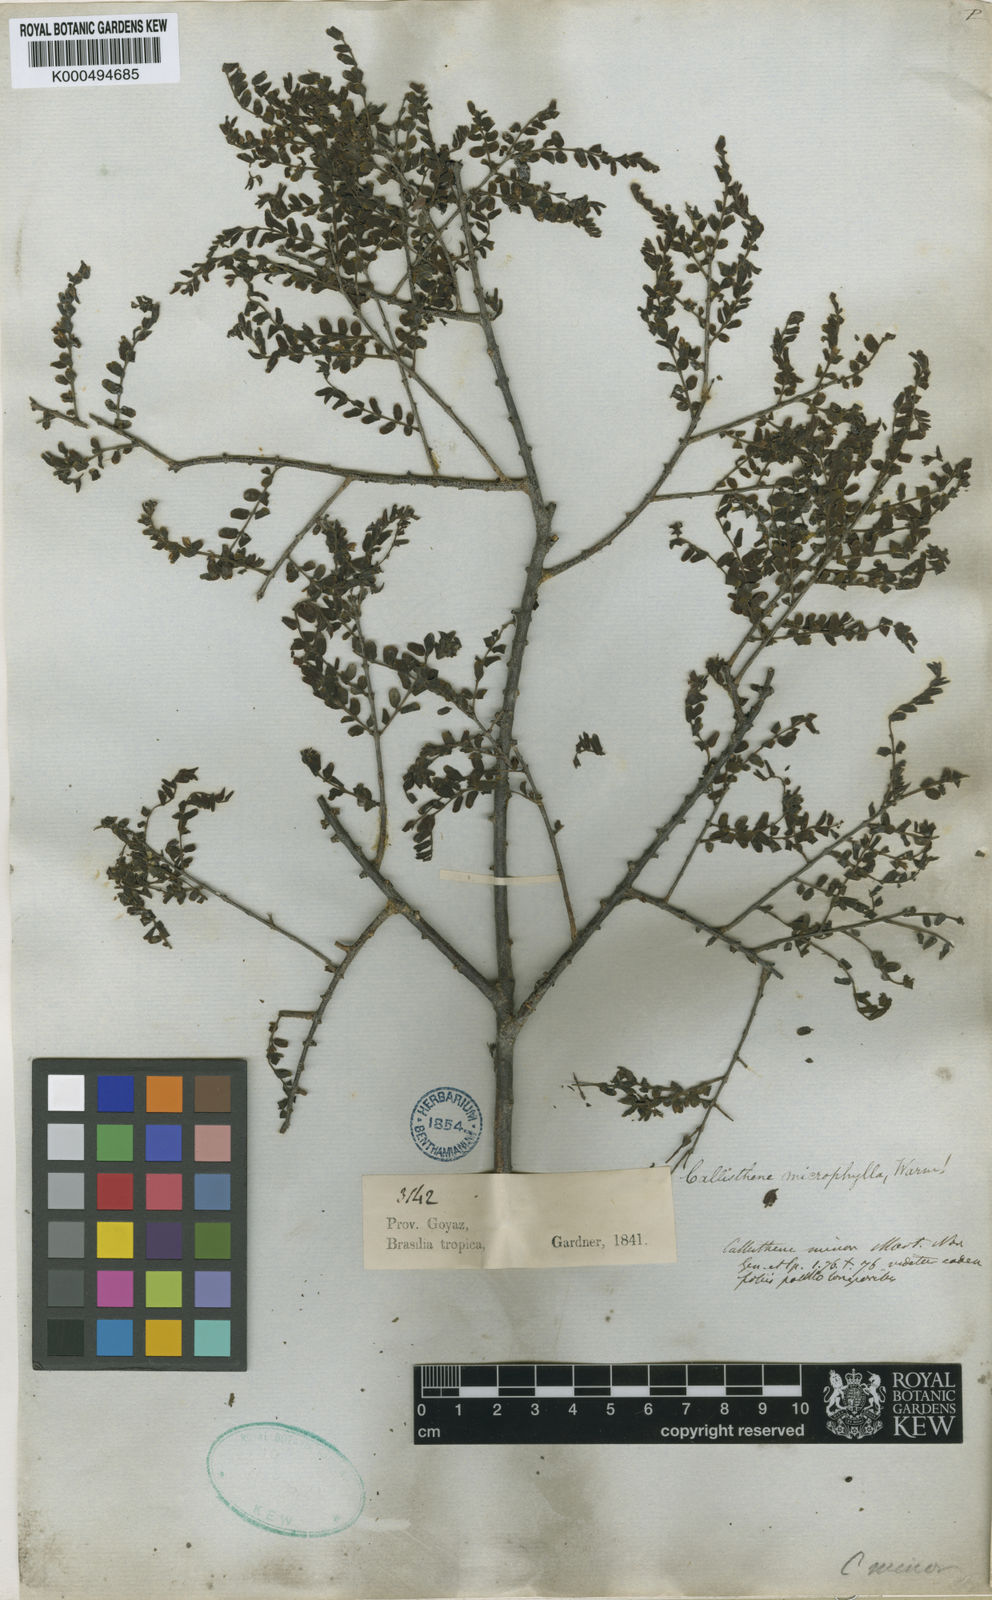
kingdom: Plantae
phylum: Tracheophyta
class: Magnoliopsida
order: Myrtales
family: Vochysiaceae
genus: Callisthene
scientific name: Callisthene microphylla
